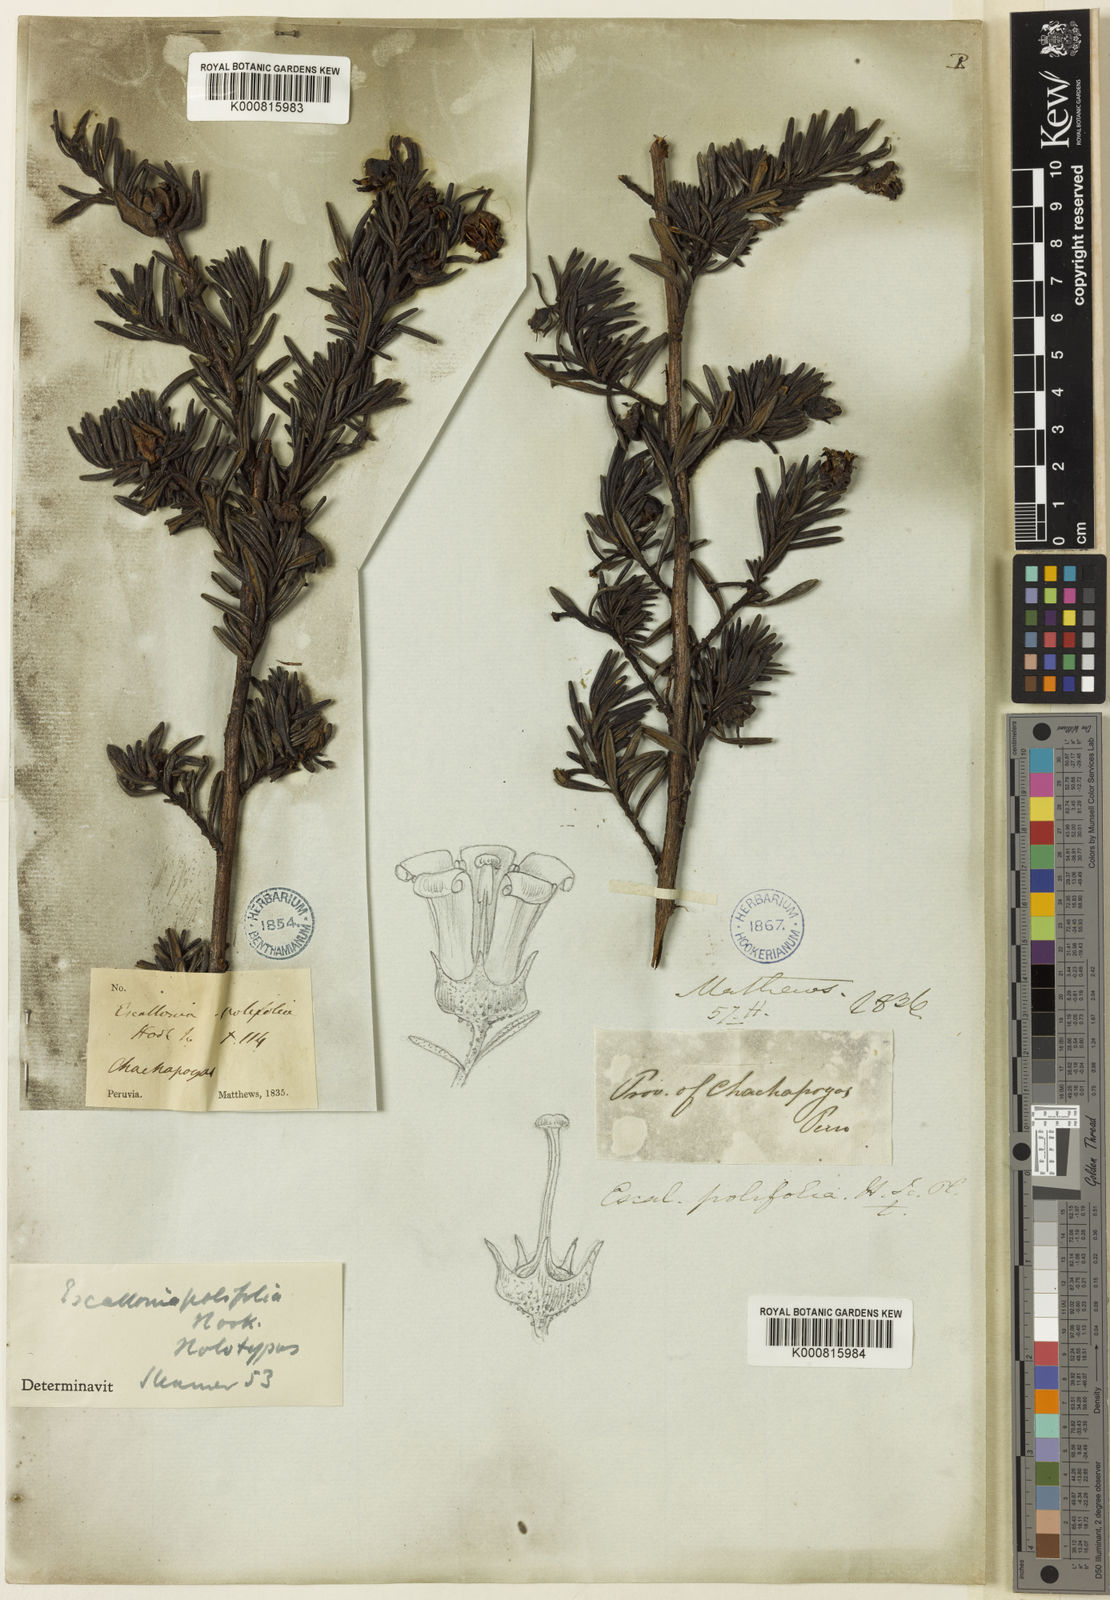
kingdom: Plantae
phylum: Tracheophyta
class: Magnoliopsida
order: Escalloniales
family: Escalloniaceae
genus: Escallonia
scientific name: Escallonia polifolia
